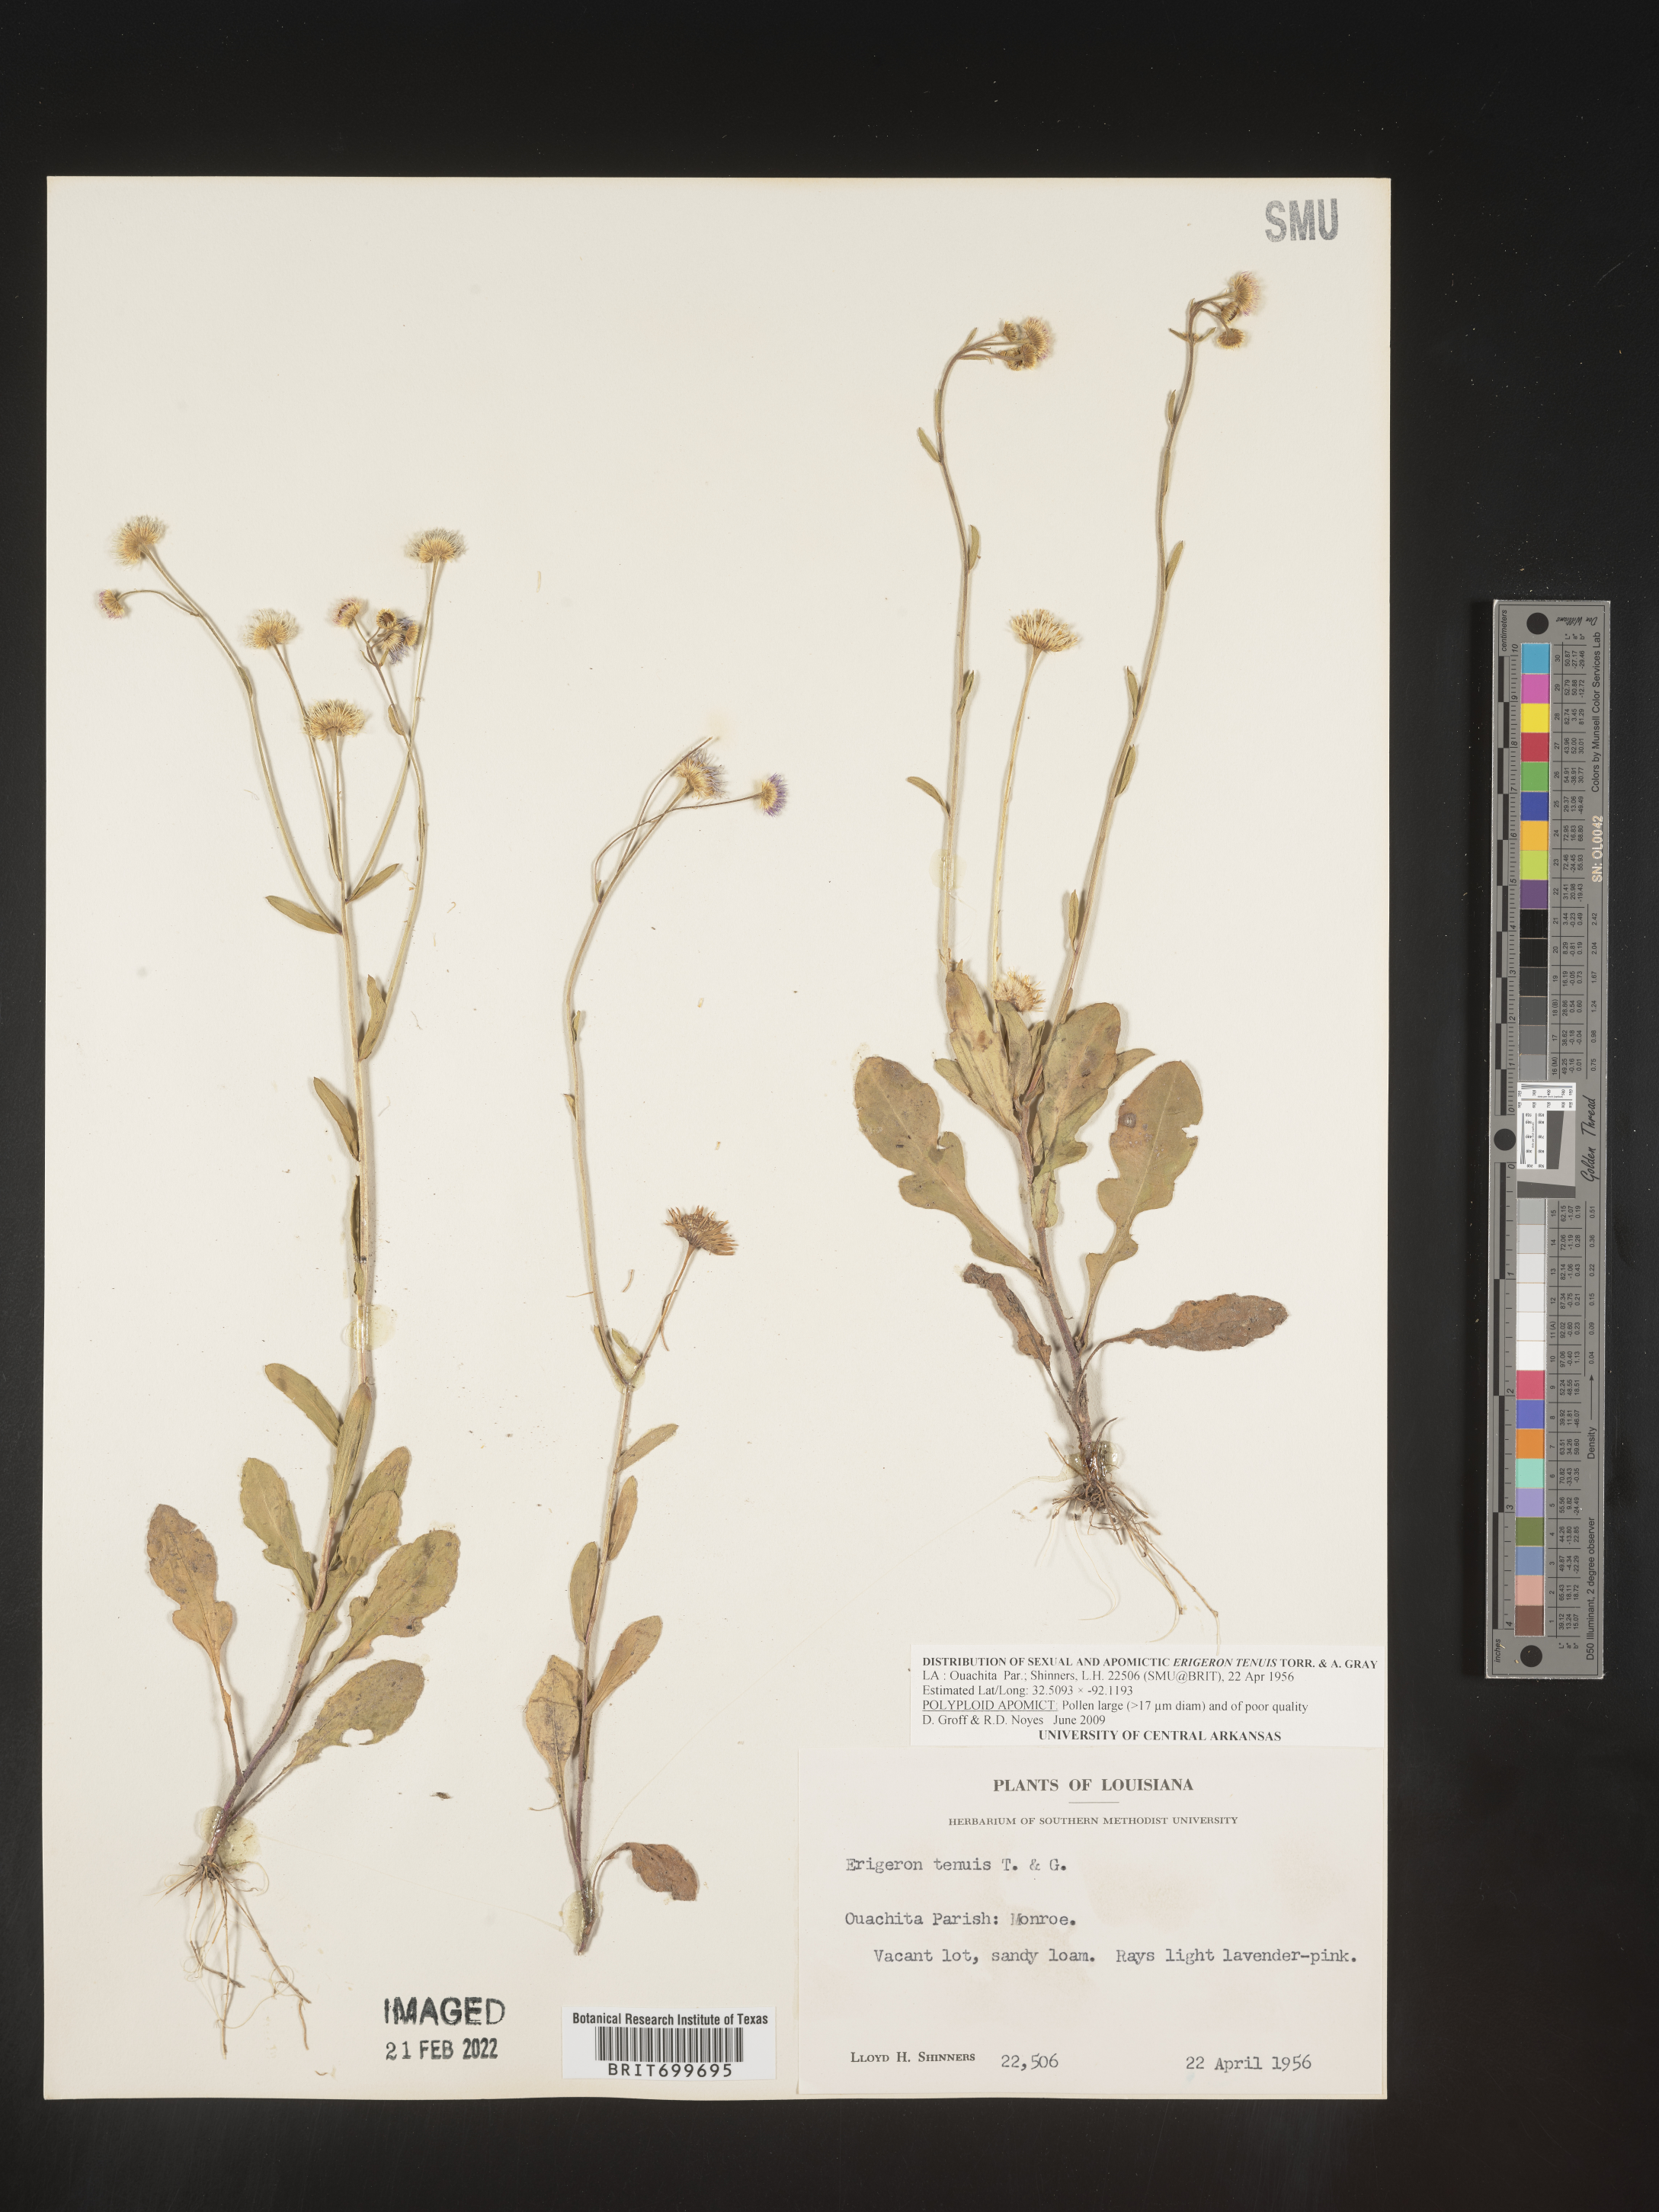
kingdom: Plantae
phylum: Tracheophyta
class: Magnoliopsida
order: Asterales
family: Asteraceae
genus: Erigeron
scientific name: Erigeron tenuis
